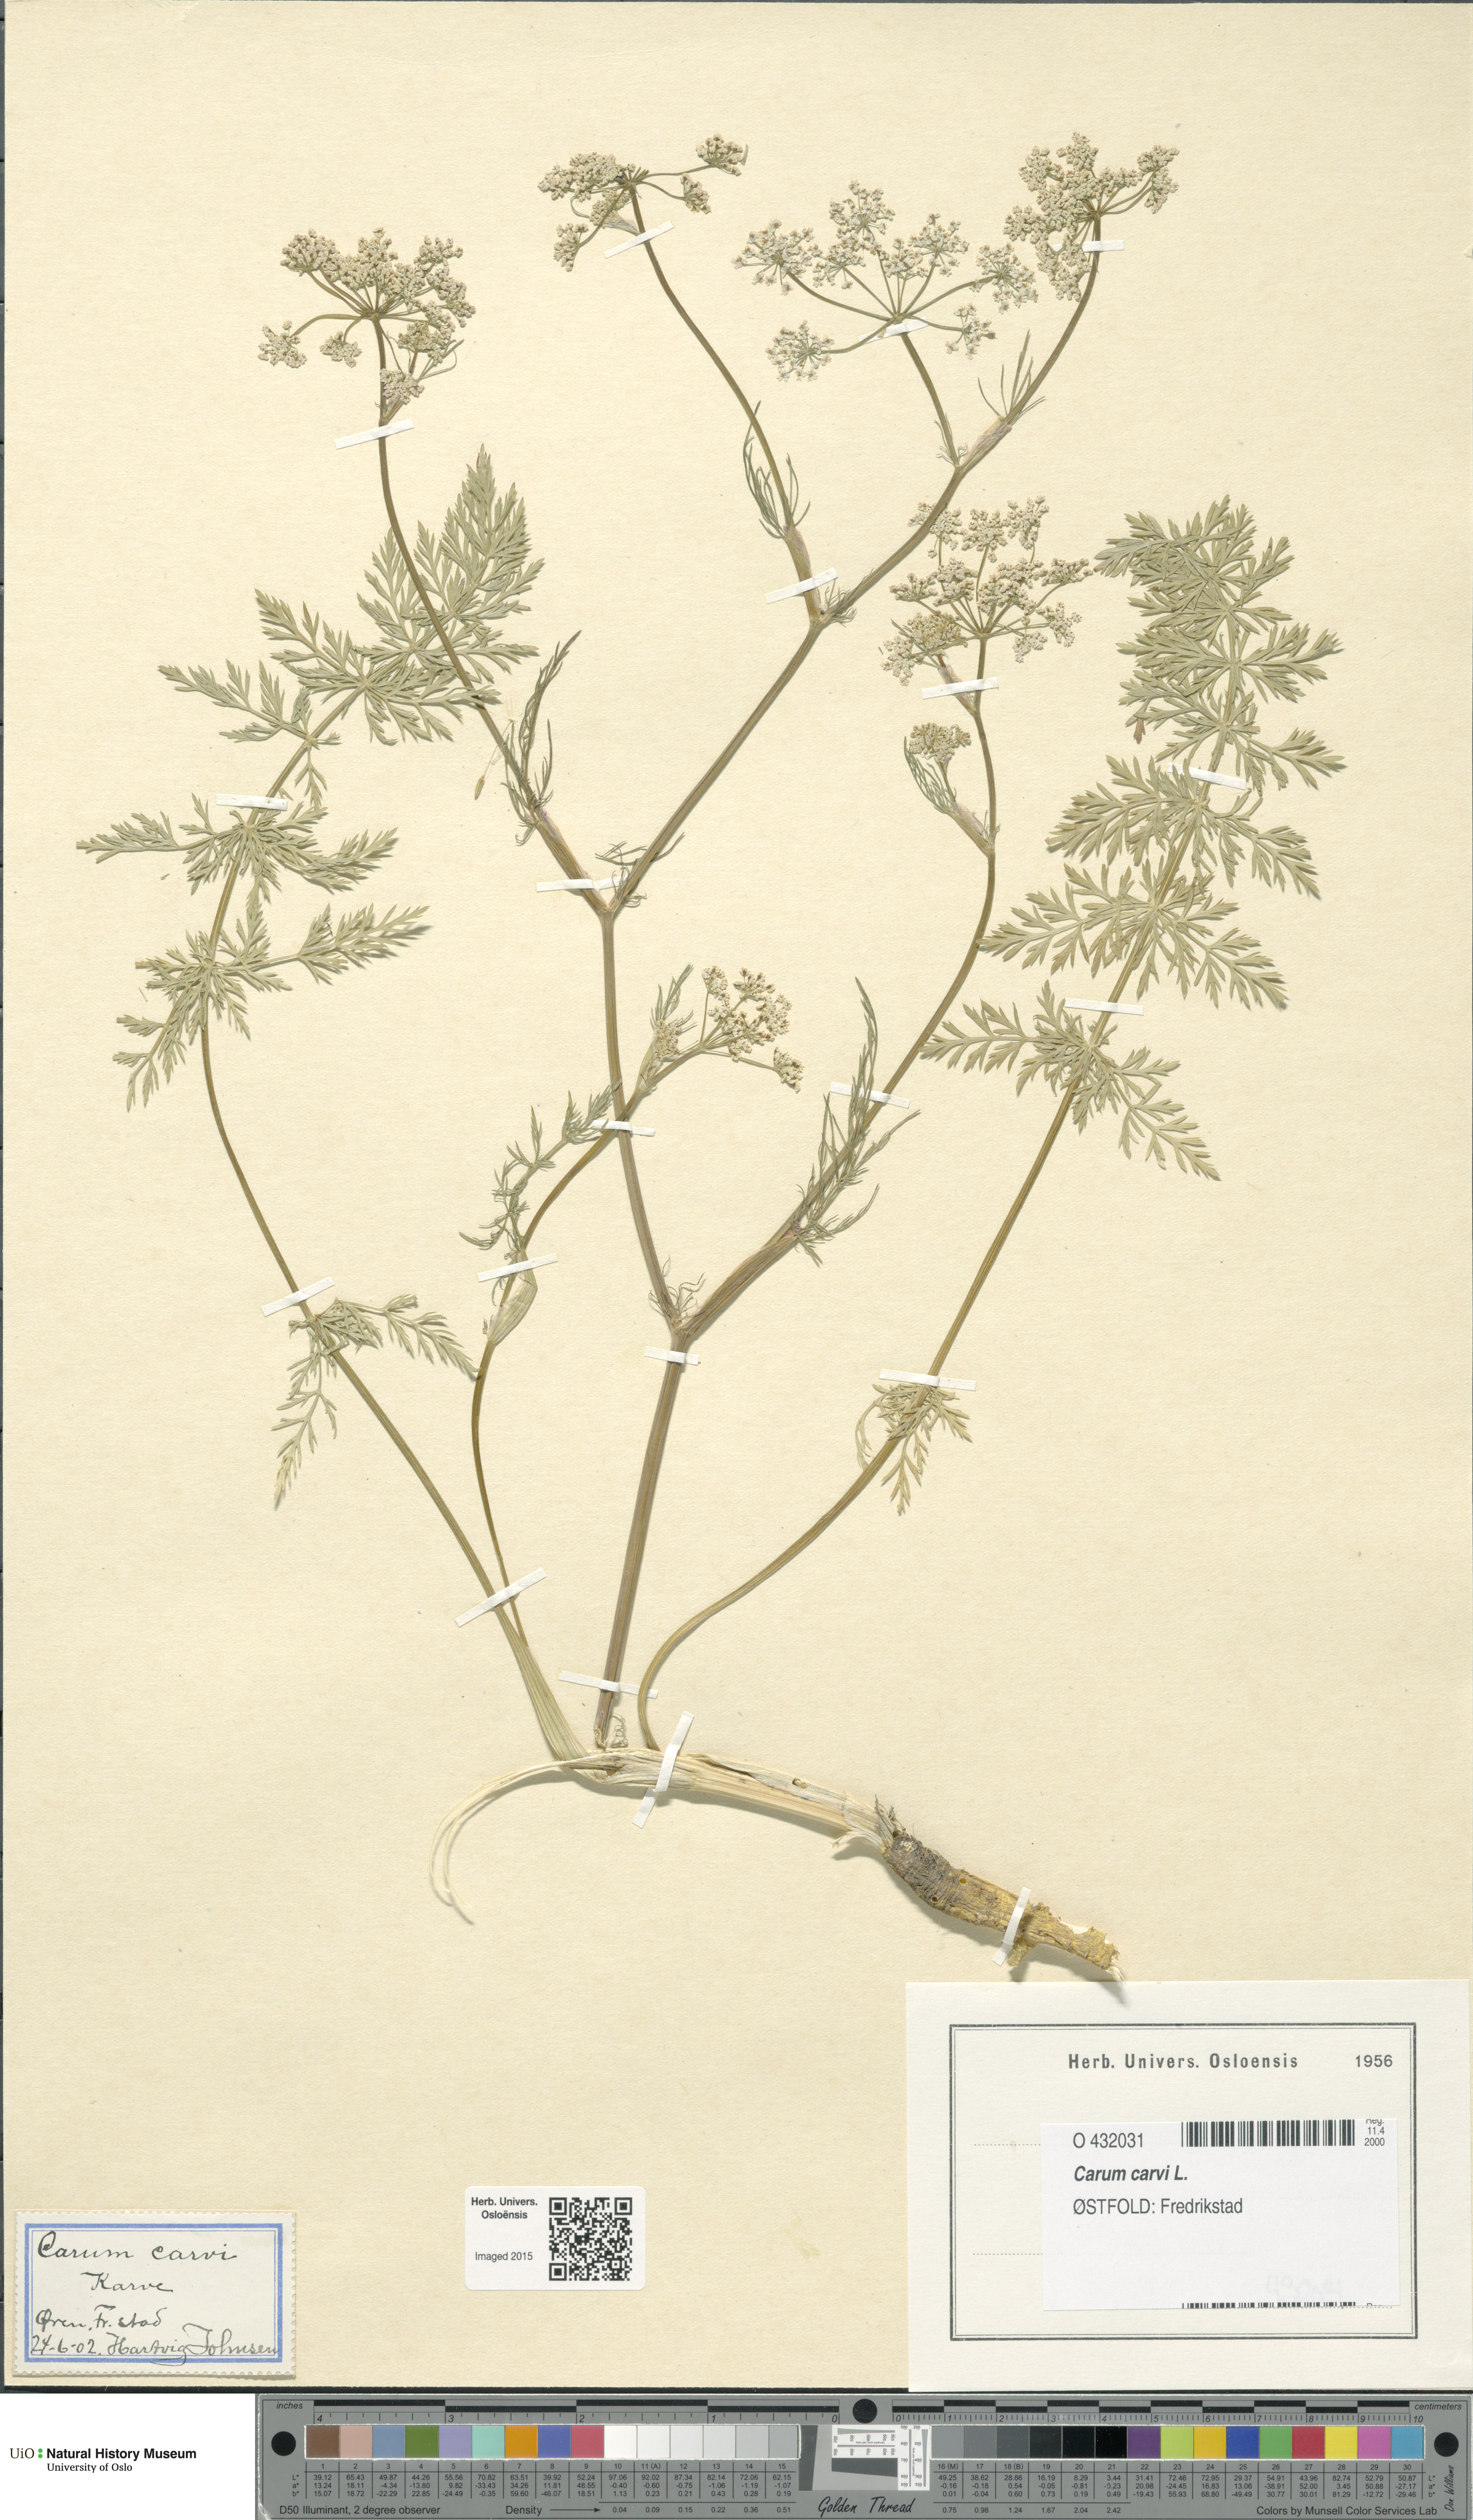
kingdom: Plantae
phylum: Tracheophyta
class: Magnoliopsida
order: Apiales
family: Apiaceae
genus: Carum
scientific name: Carum carvi
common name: Caraway
